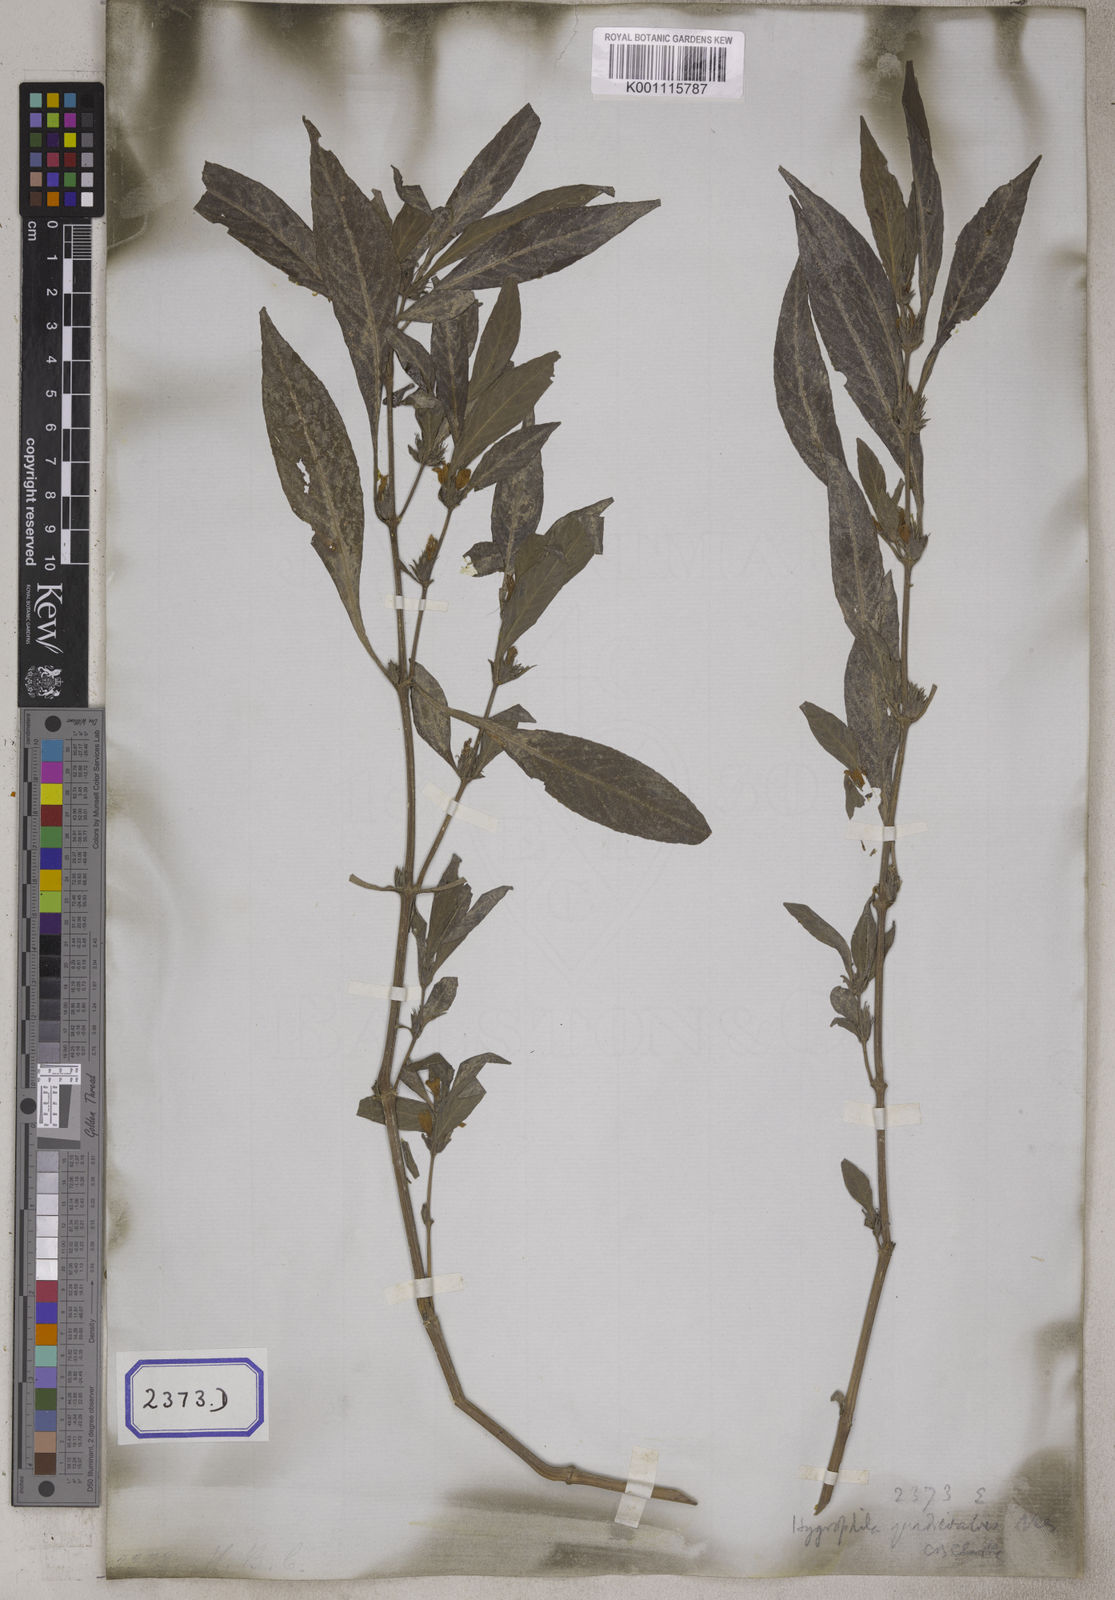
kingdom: Plantae
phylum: Tracheophyta
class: Magnoliopsida
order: Lamiales
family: Acanthaceae
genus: Hygrophila
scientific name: Hygrophila erecta
